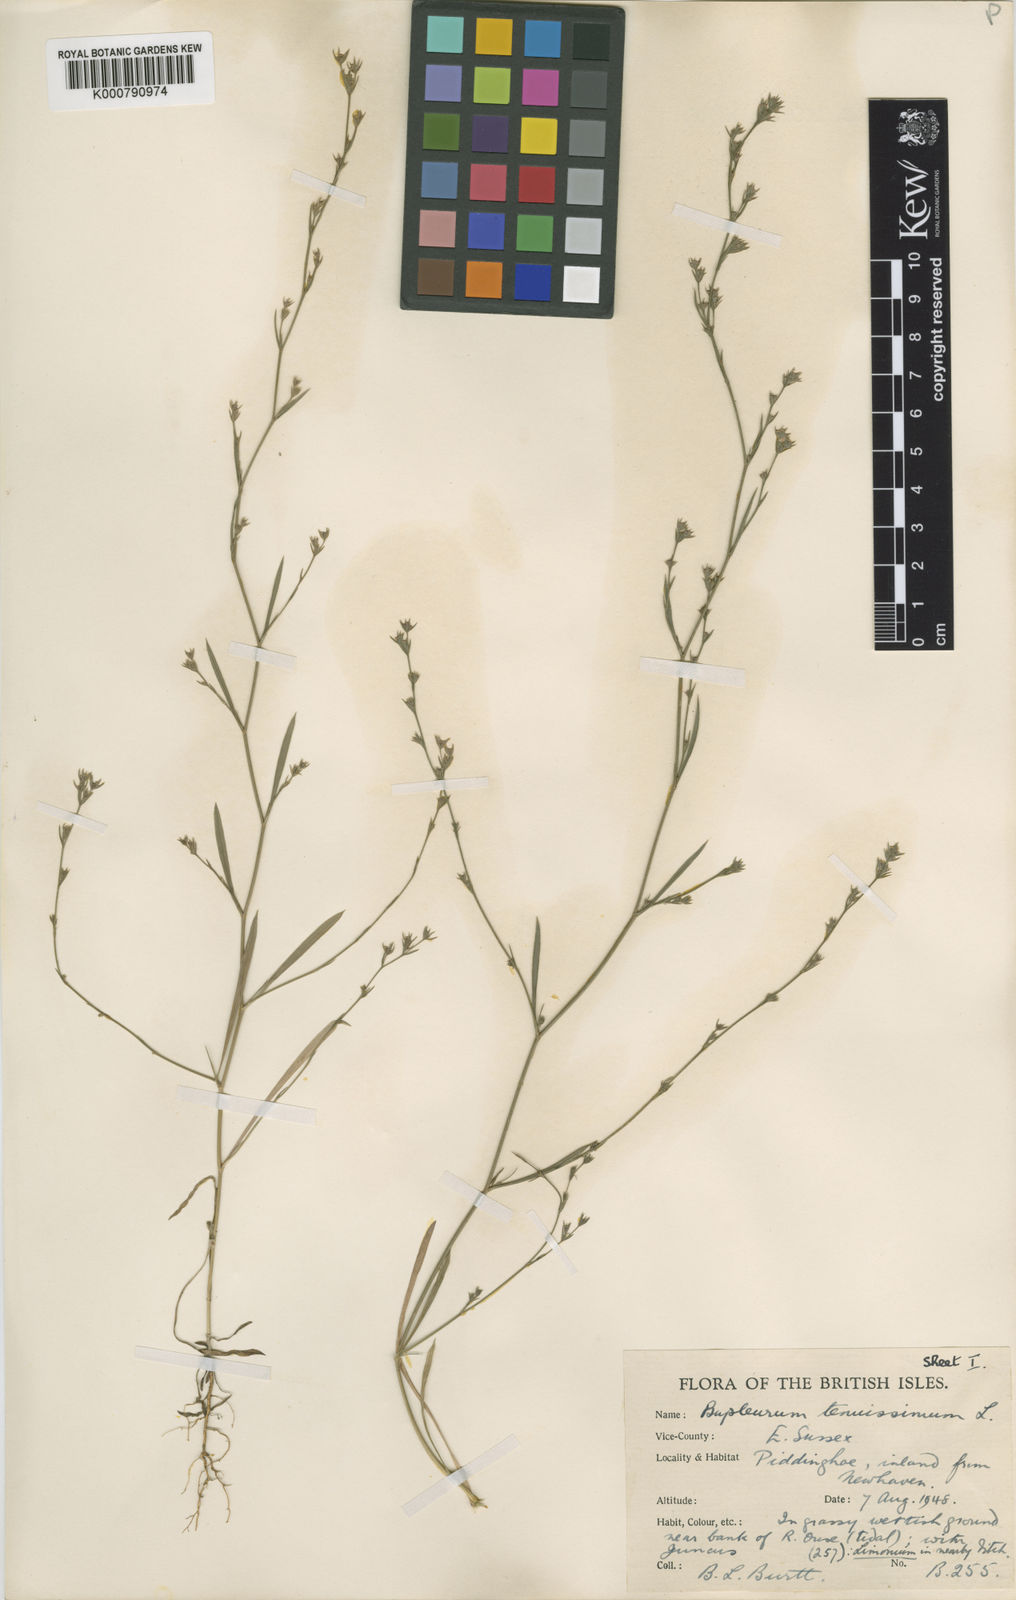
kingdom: Plantae
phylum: Tracheophyta
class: Magnoliopsida
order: Apiales
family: Apiaceae
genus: Bupleurum
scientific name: Bupleurum tenuissimum
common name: Slender hare's-ear
